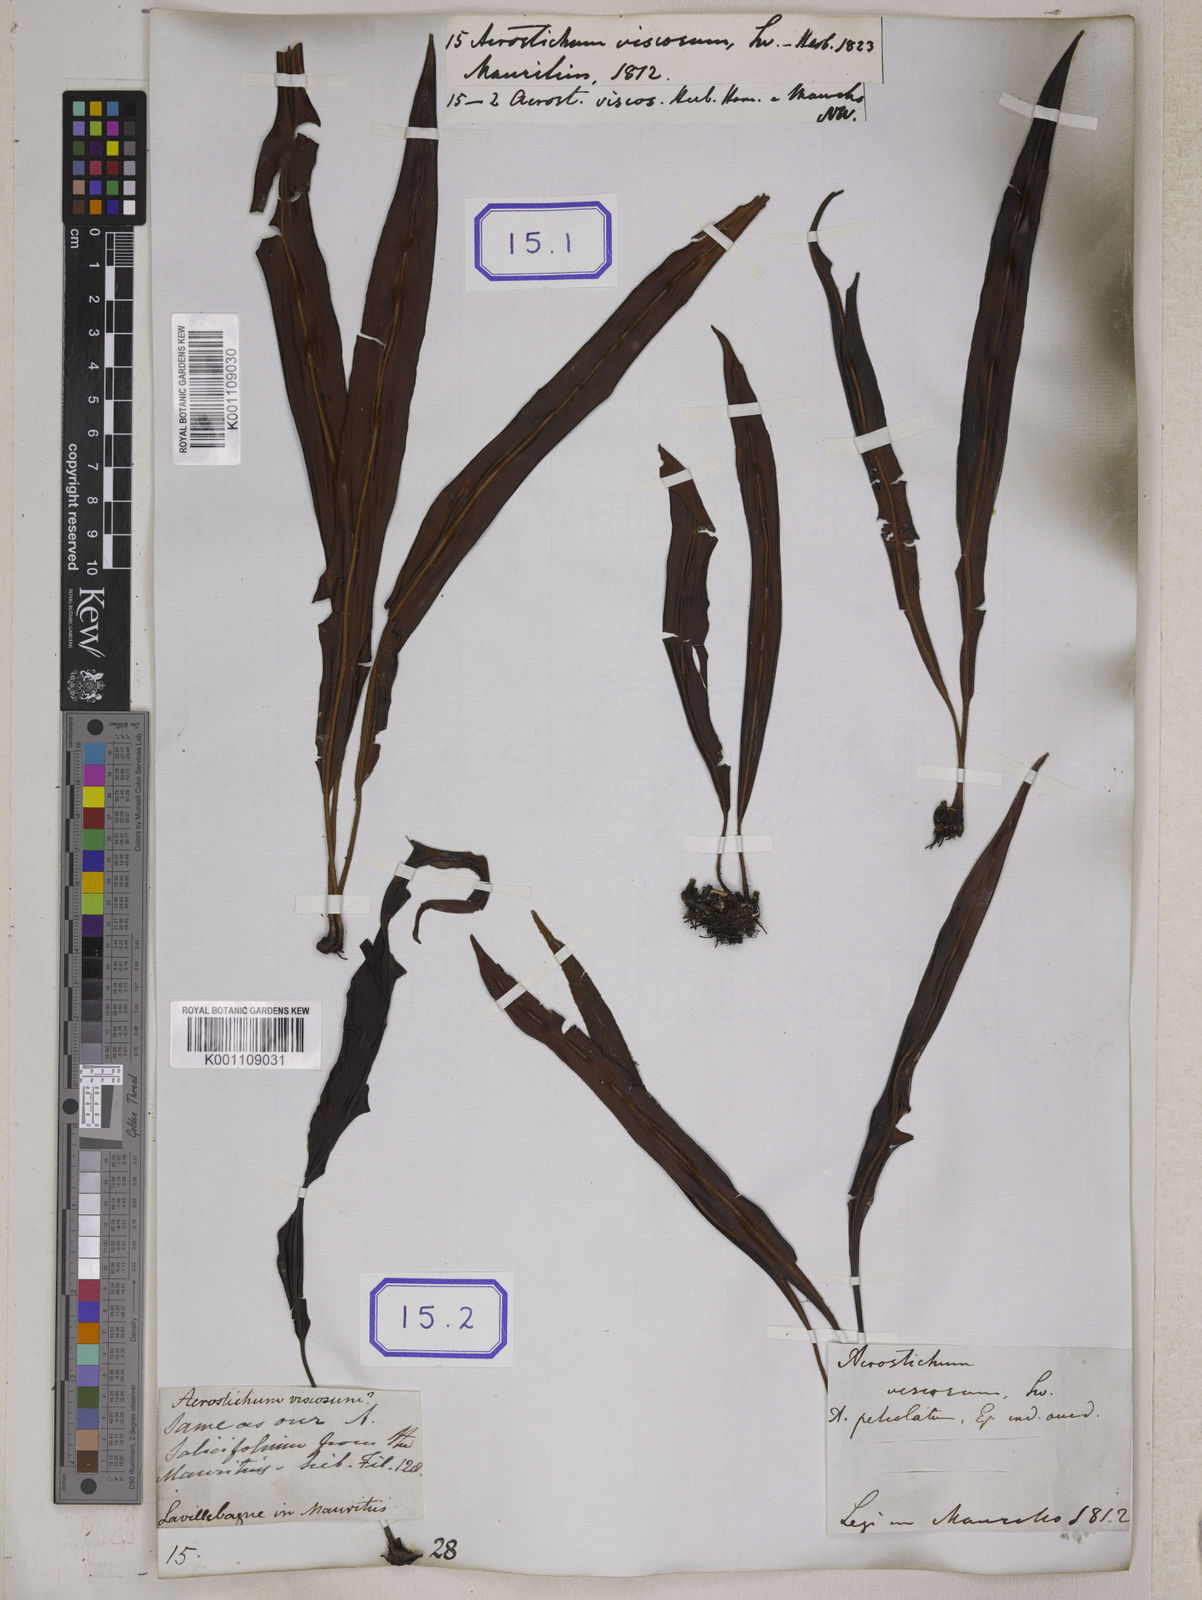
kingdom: Plantae
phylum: Tracheophyta
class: Polypodiopsida
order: Polypodiales
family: Dryopteridaceae
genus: Elaphoglossum
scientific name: Elaphoglossum petiolatum
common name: Graceful tonguefern
